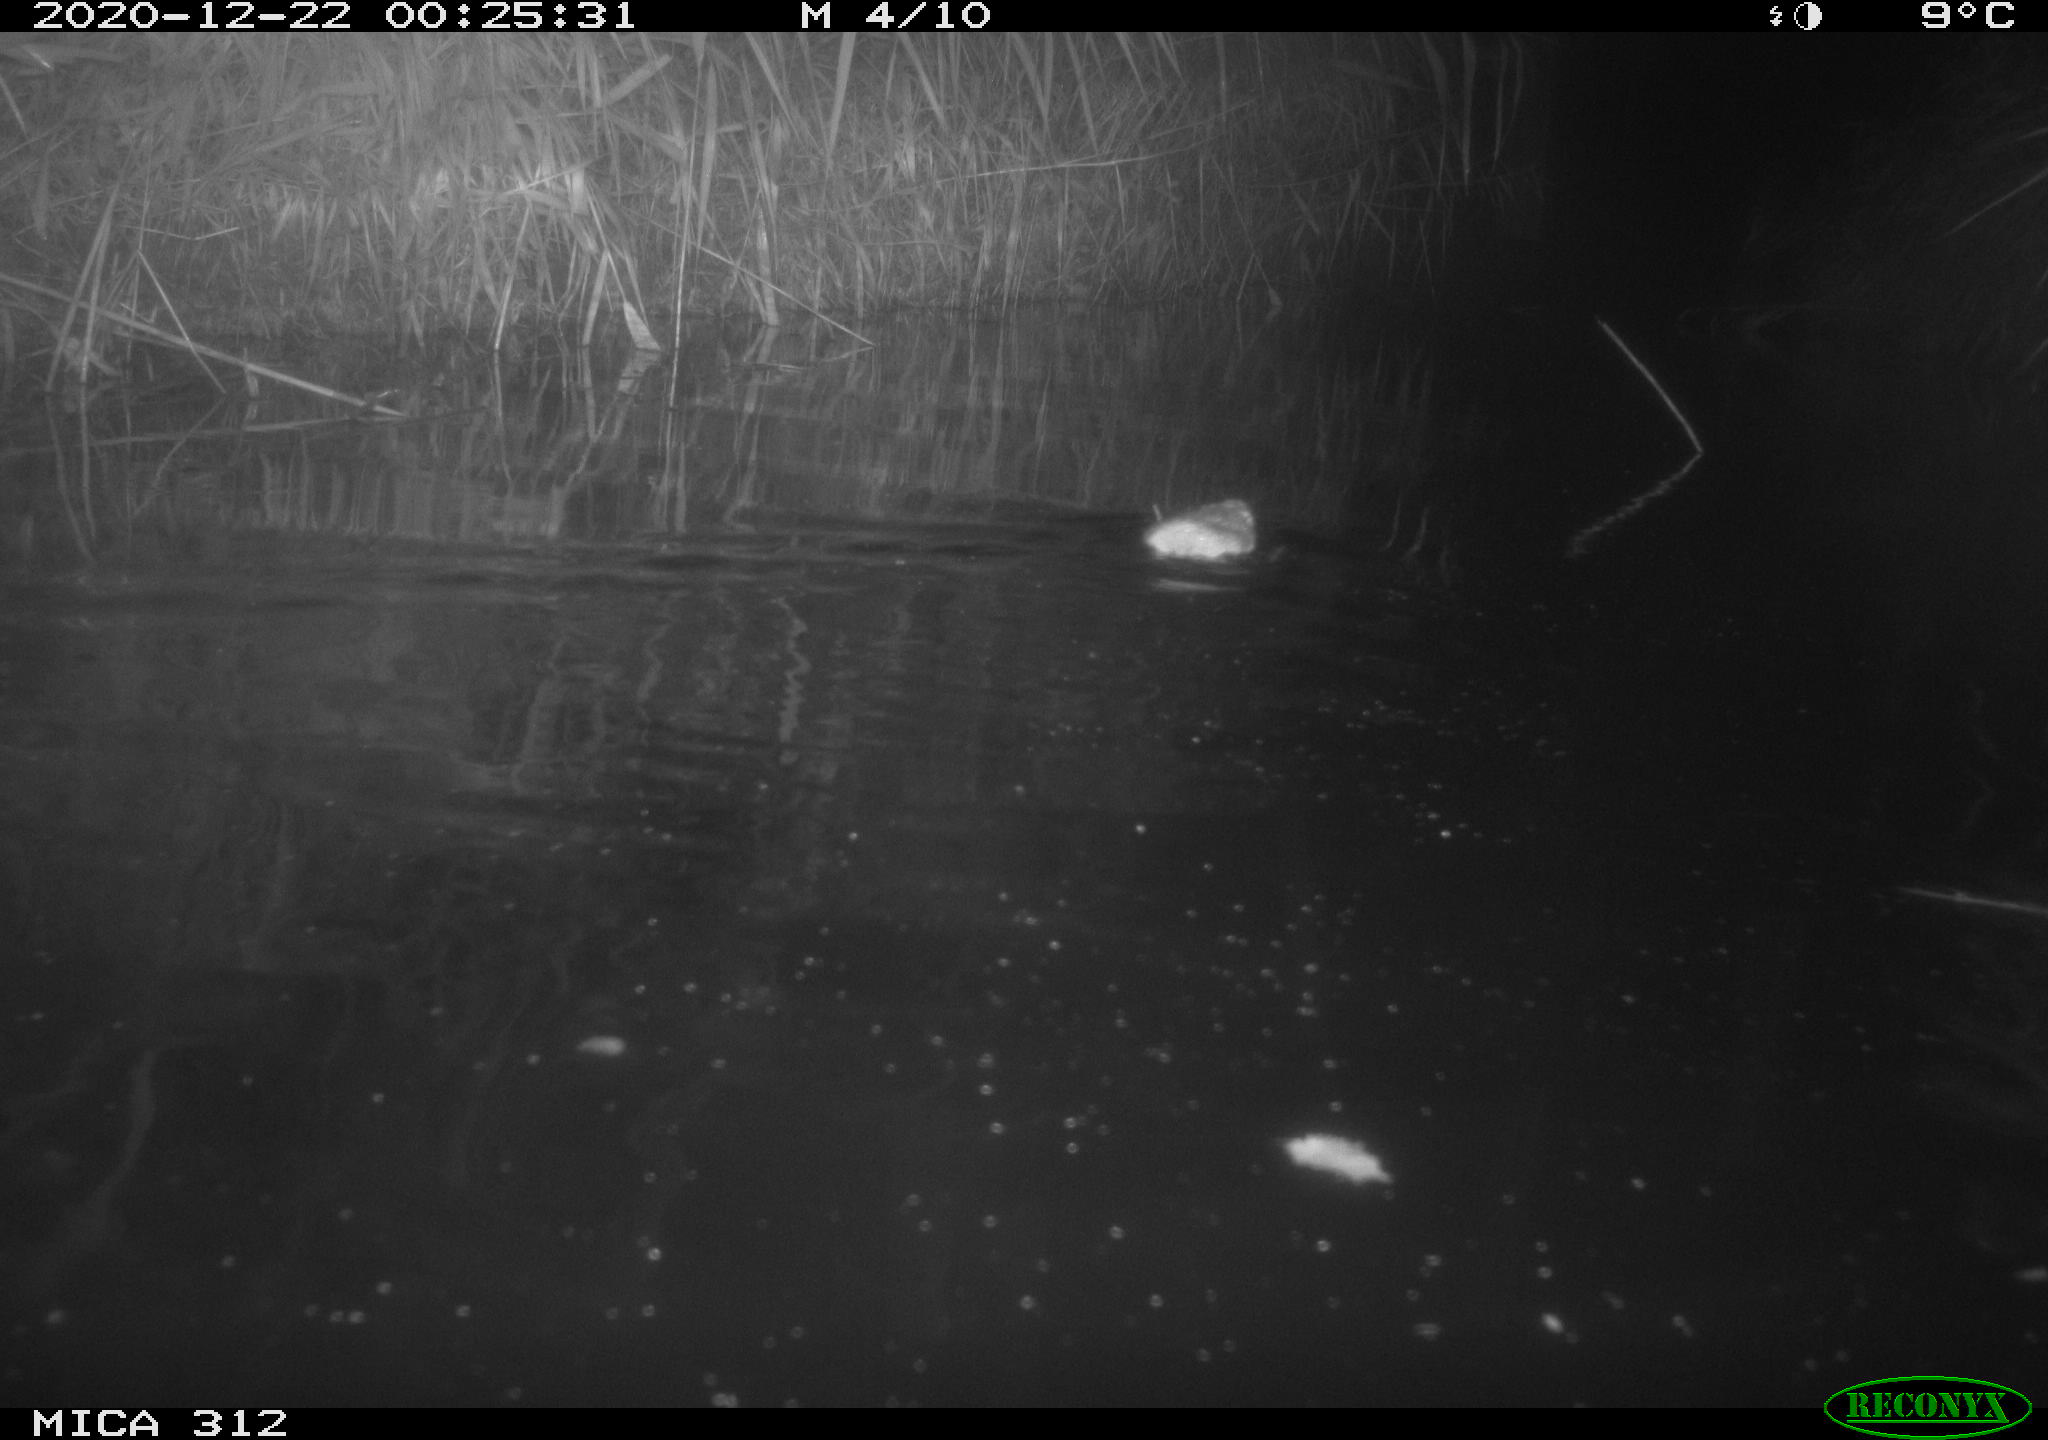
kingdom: Animalia
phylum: Chordata
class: Mammalia
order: Rodentia
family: Muridae
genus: Rattus
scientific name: Rattus norvegicus
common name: Brown rat
